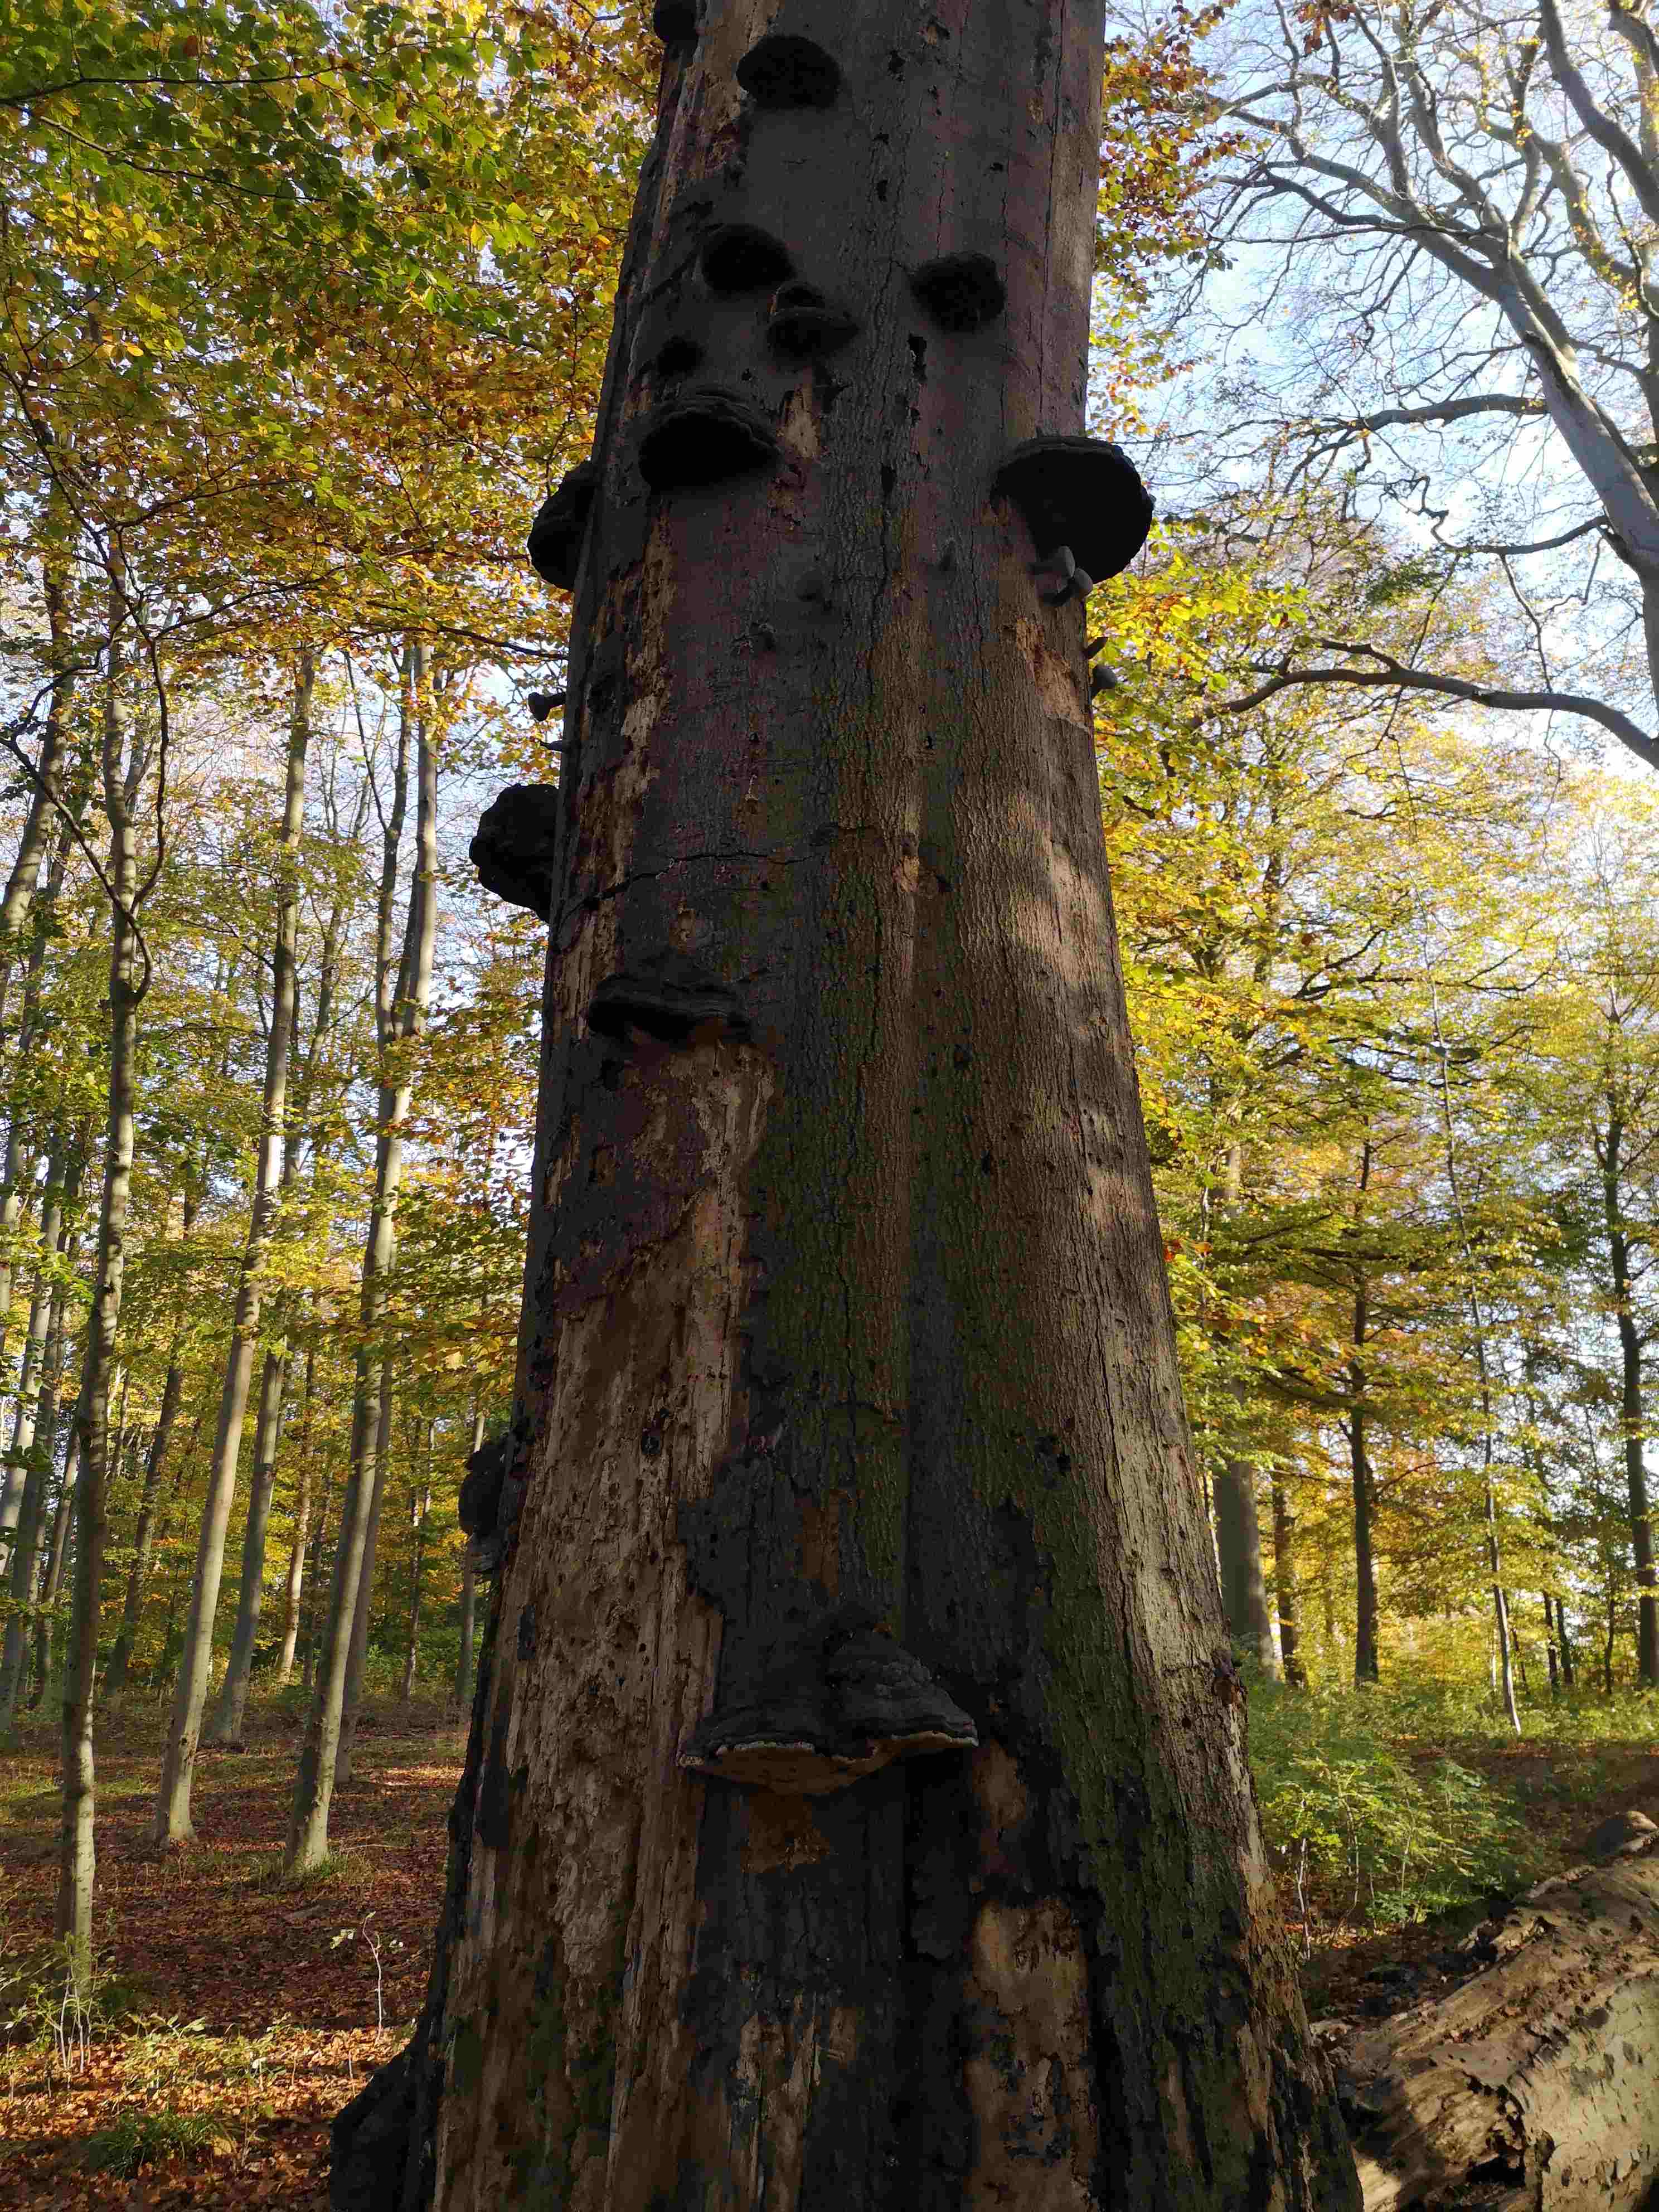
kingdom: Fungi
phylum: Basidiomycota
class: Agaricomycetes
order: Polyporales
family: Polyporaceae
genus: Fomes
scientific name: Fomes fomentarius
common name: tøndersvamp
